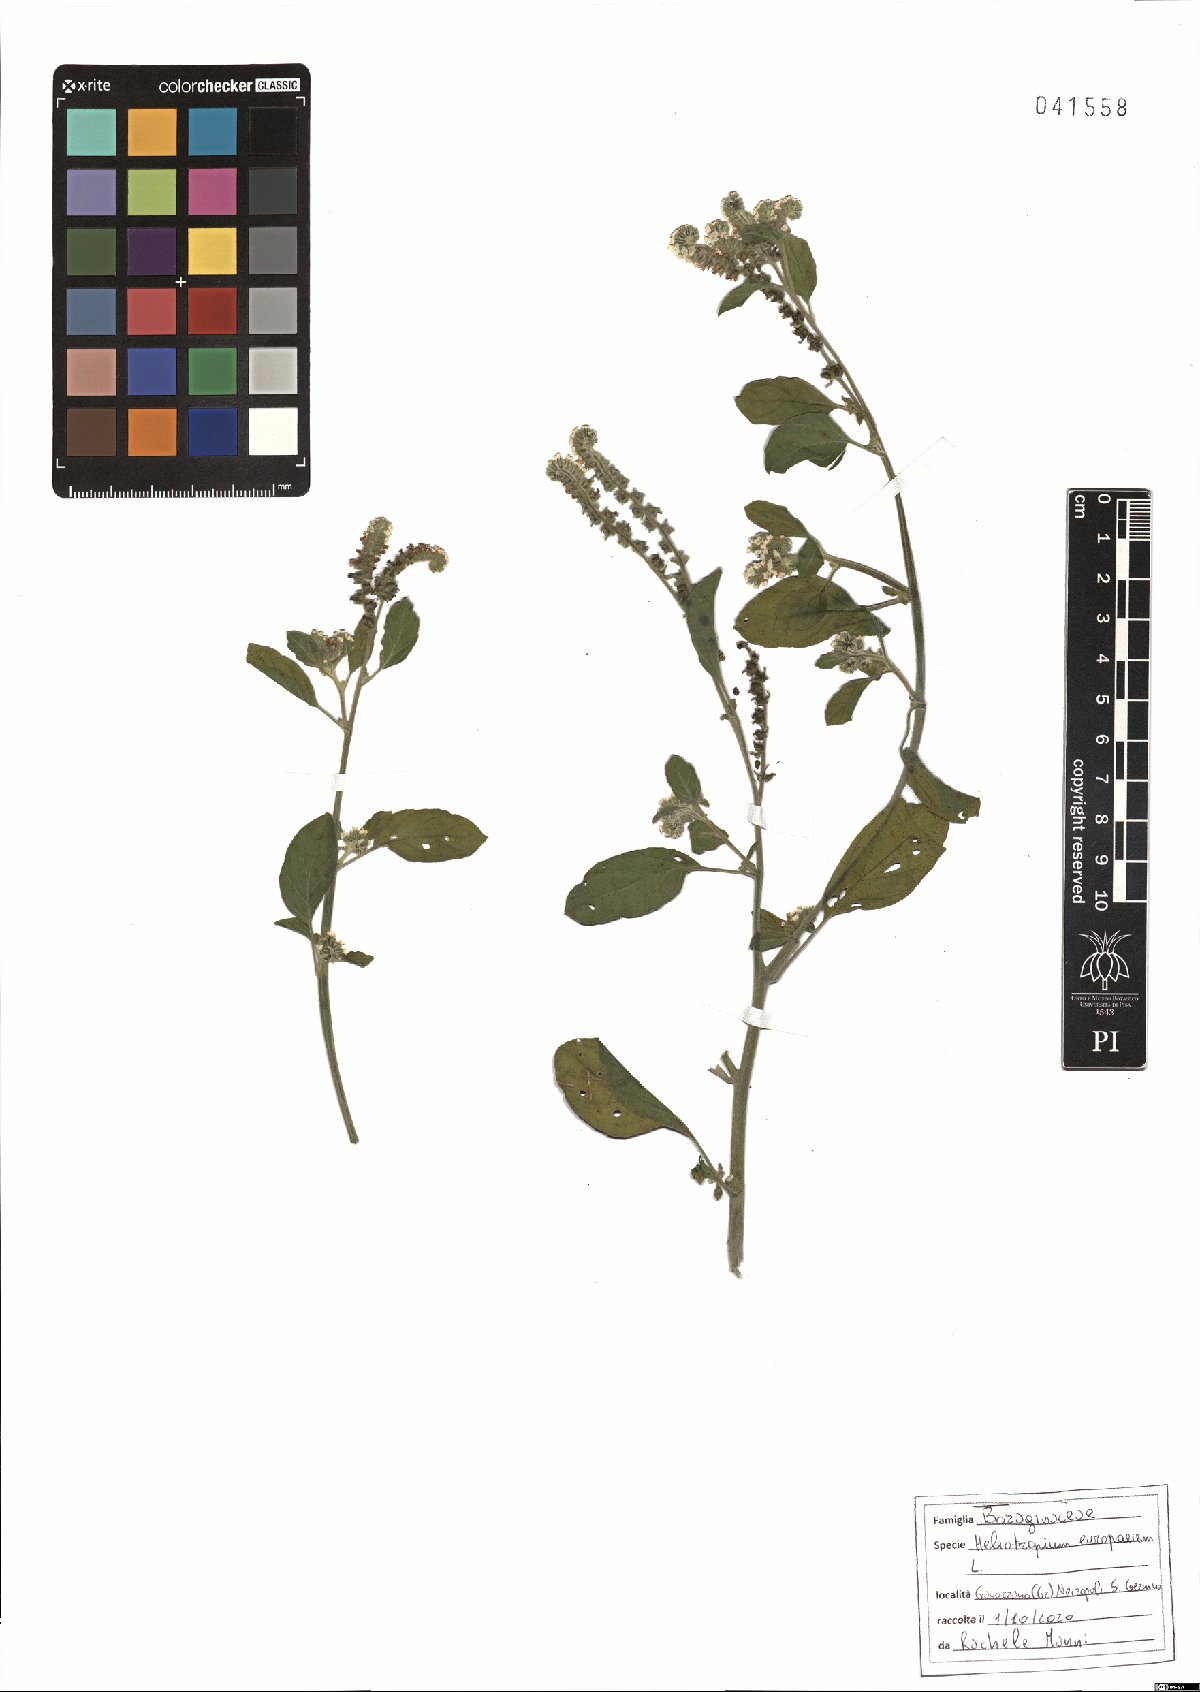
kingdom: Plantae
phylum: Tracheophyta
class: Magnoliopsida
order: Boraginales
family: Heliotropiaceae
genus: Heliotropium
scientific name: Heliotropium europaeum
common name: European heliotrope
